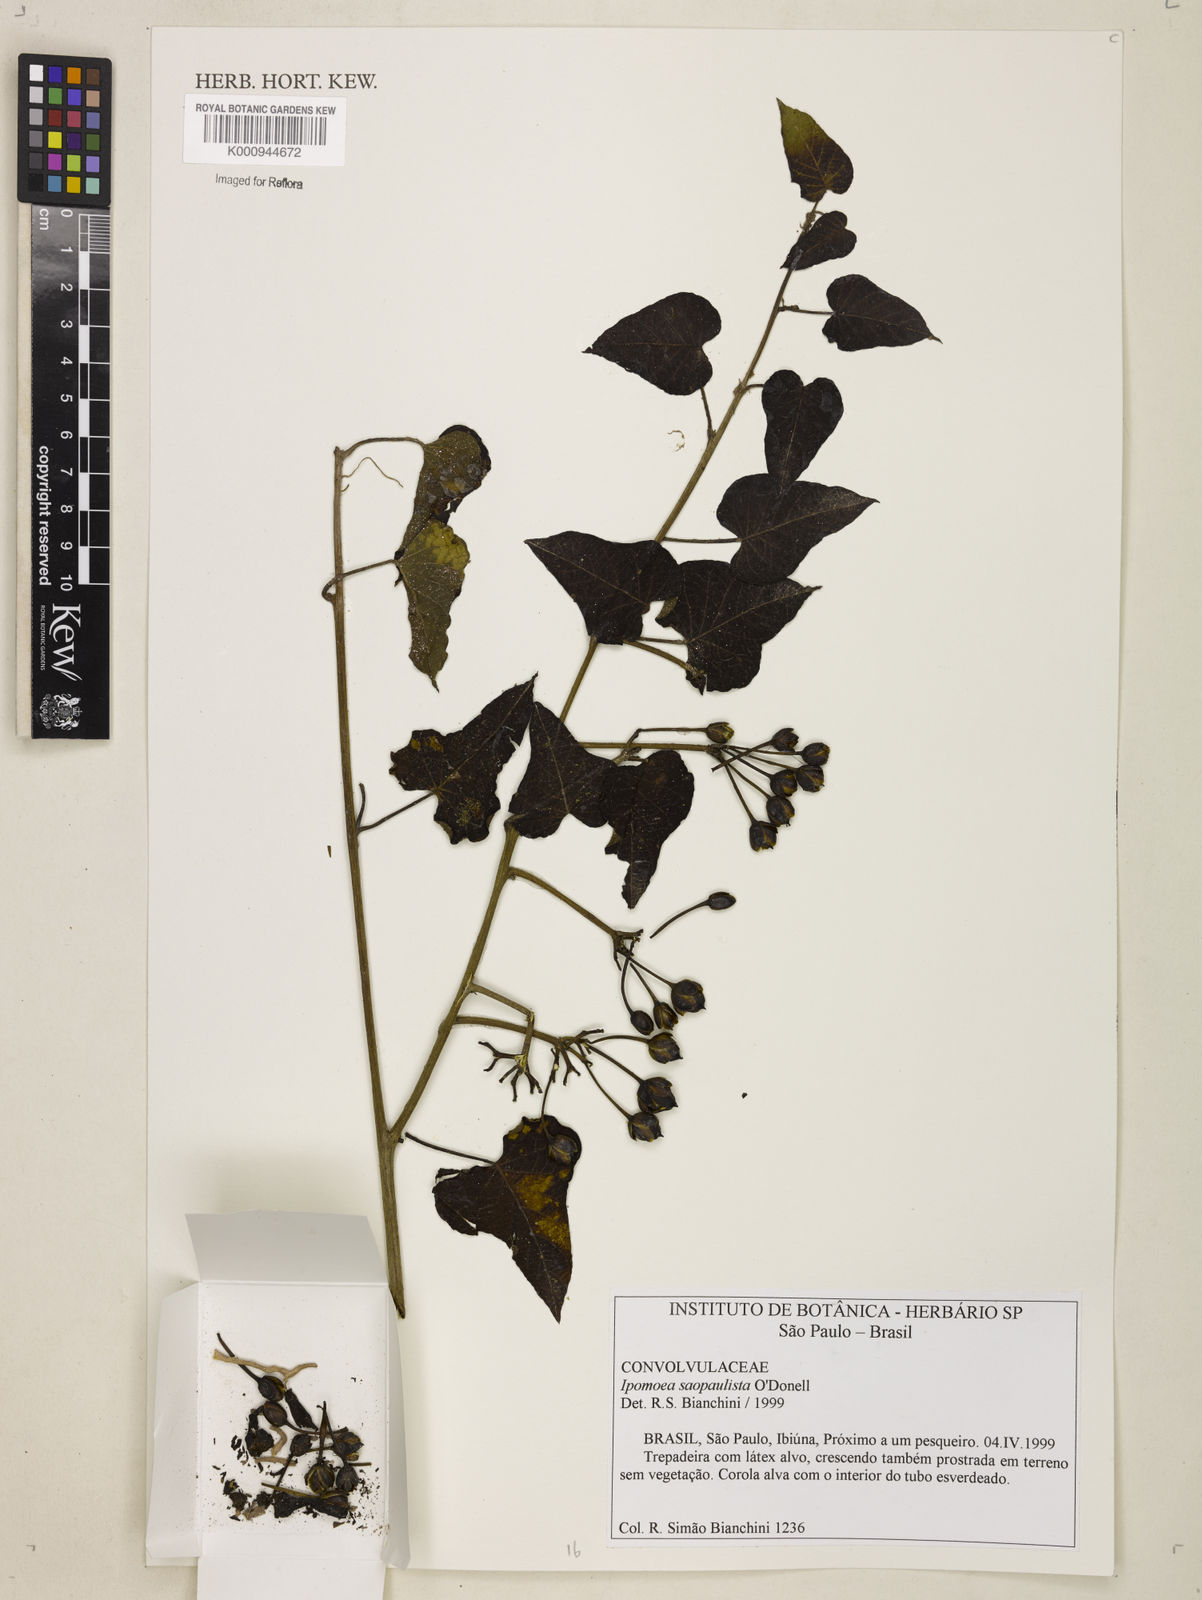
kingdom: Plantae
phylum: Tracheophyta
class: Magnoliopsida
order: Solanales
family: Convolvulaceae
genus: Ipomoea
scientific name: Ipomoea
